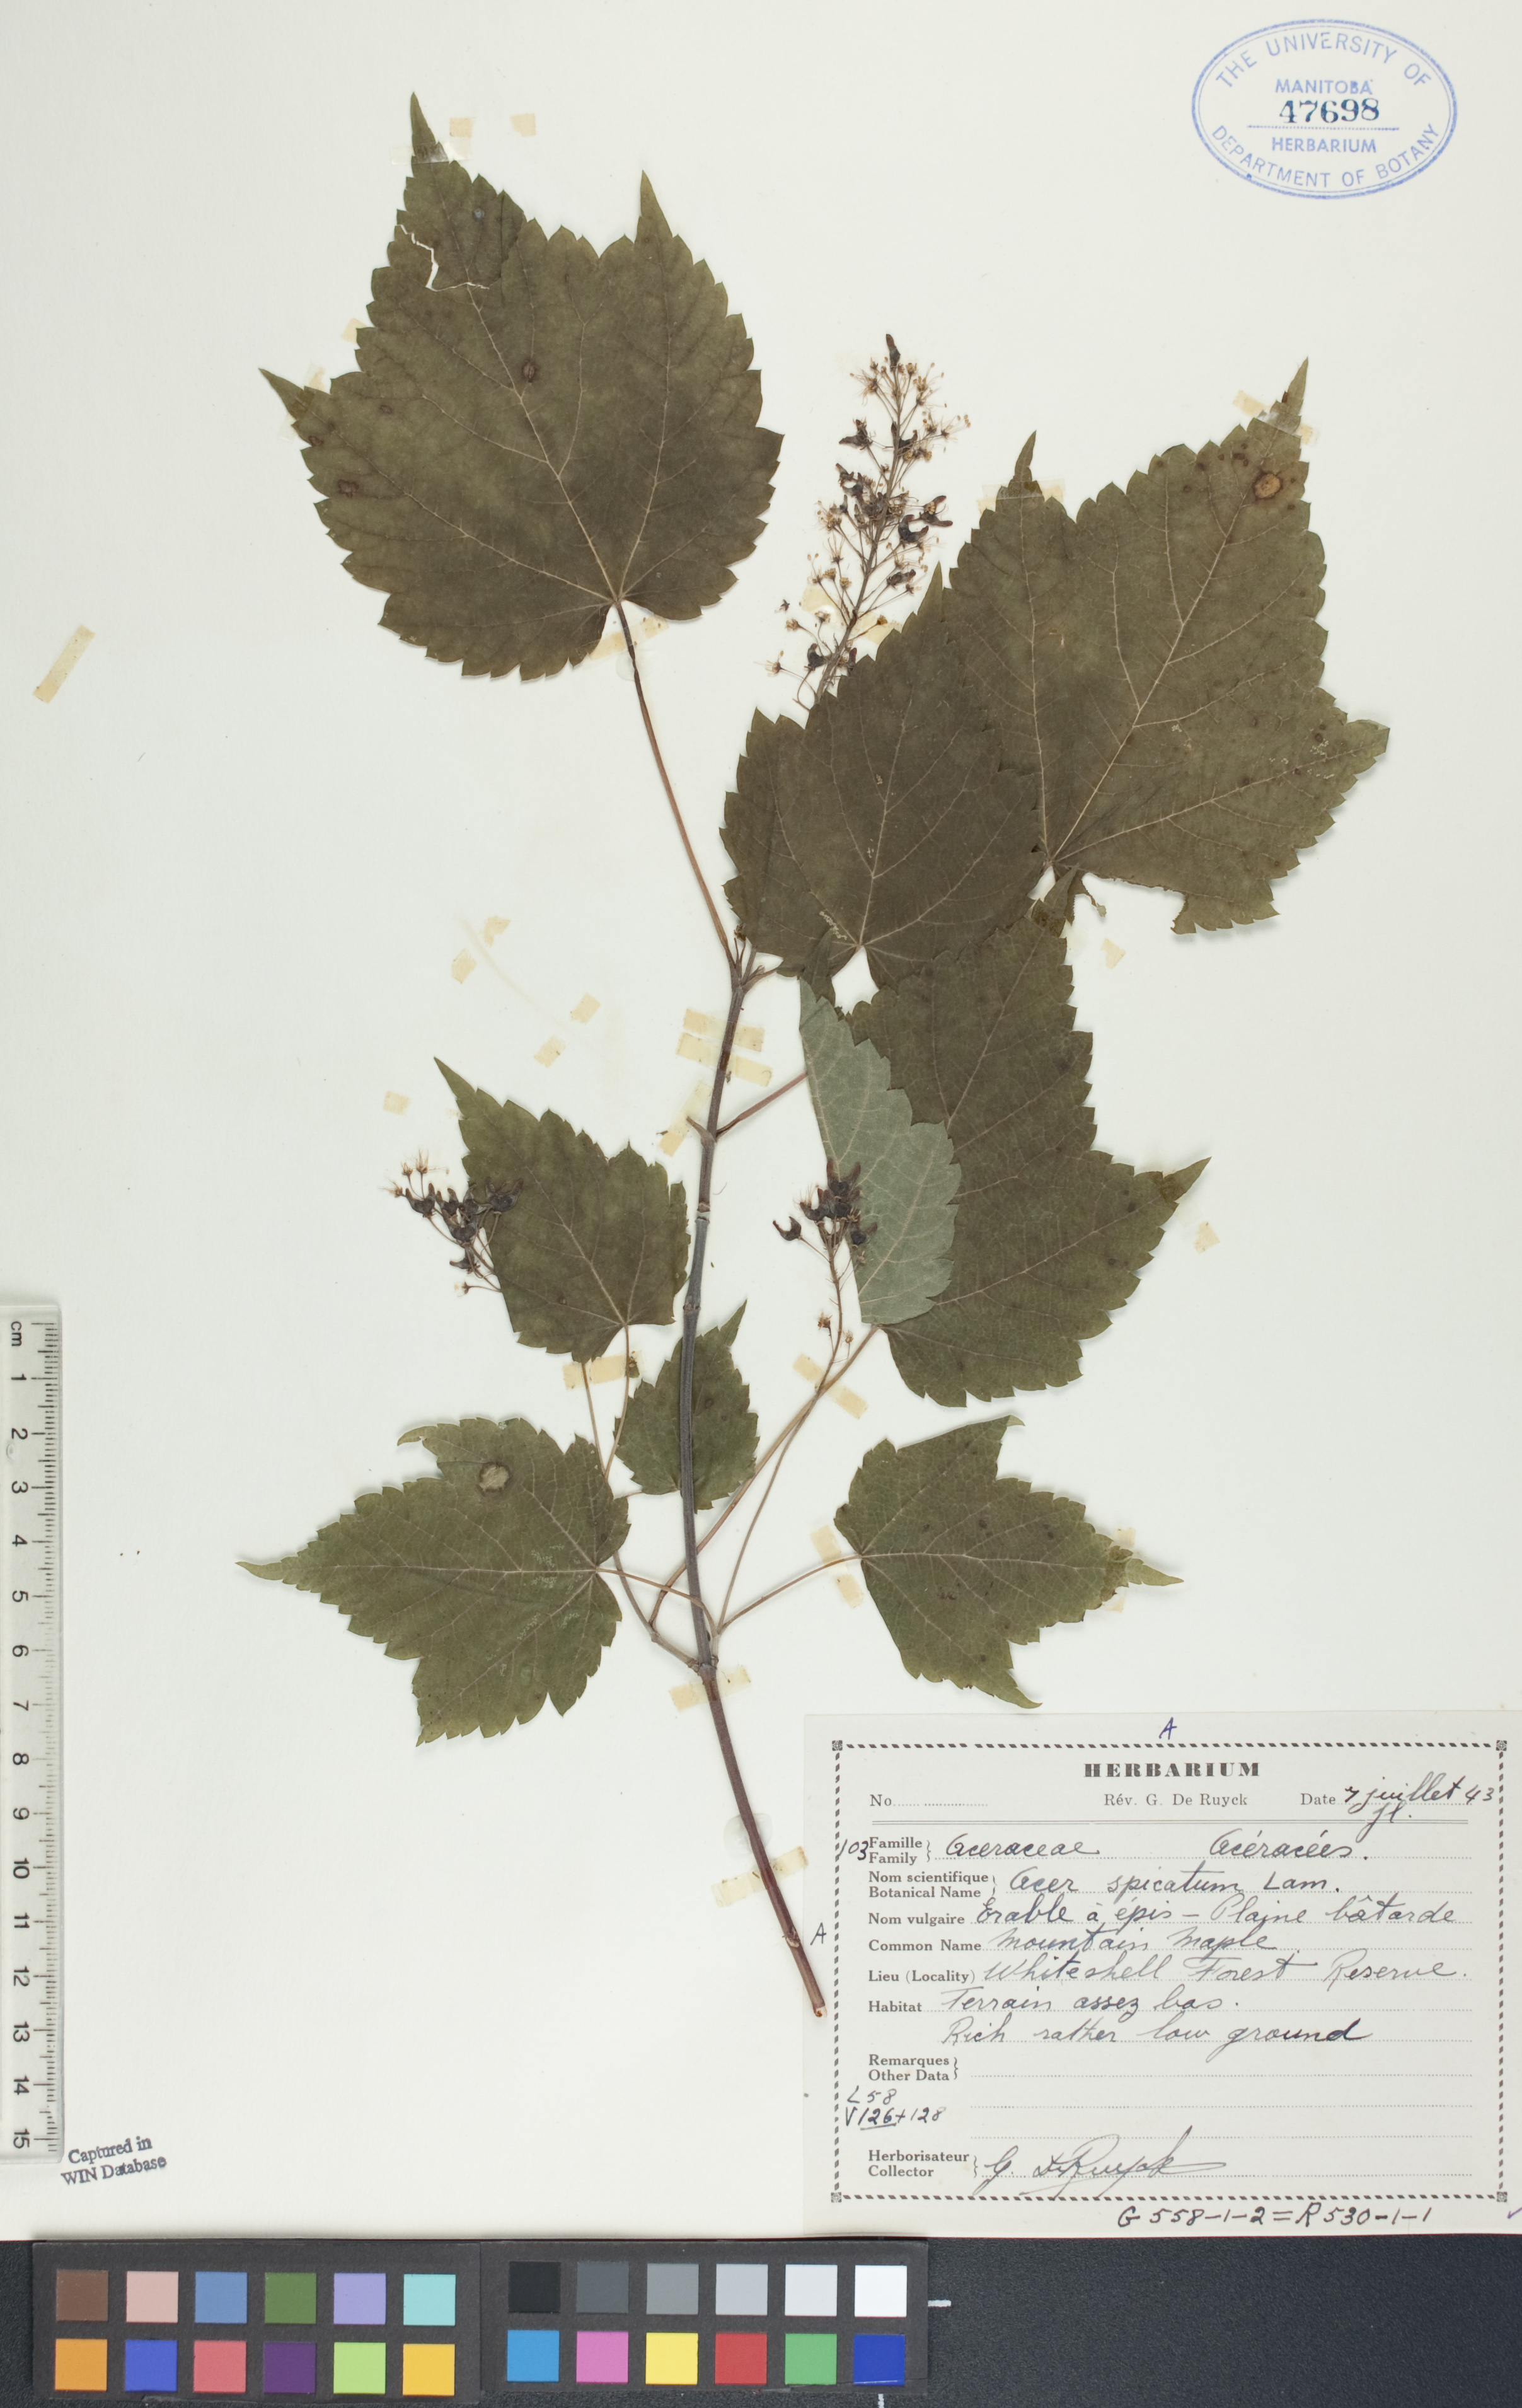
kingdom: Plantae
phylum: Tracheophyta
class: Magnoliopsida
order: Sapindales
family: Sapindaceae
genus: Acer
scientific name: Acer spicatum
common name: Mountain maple
